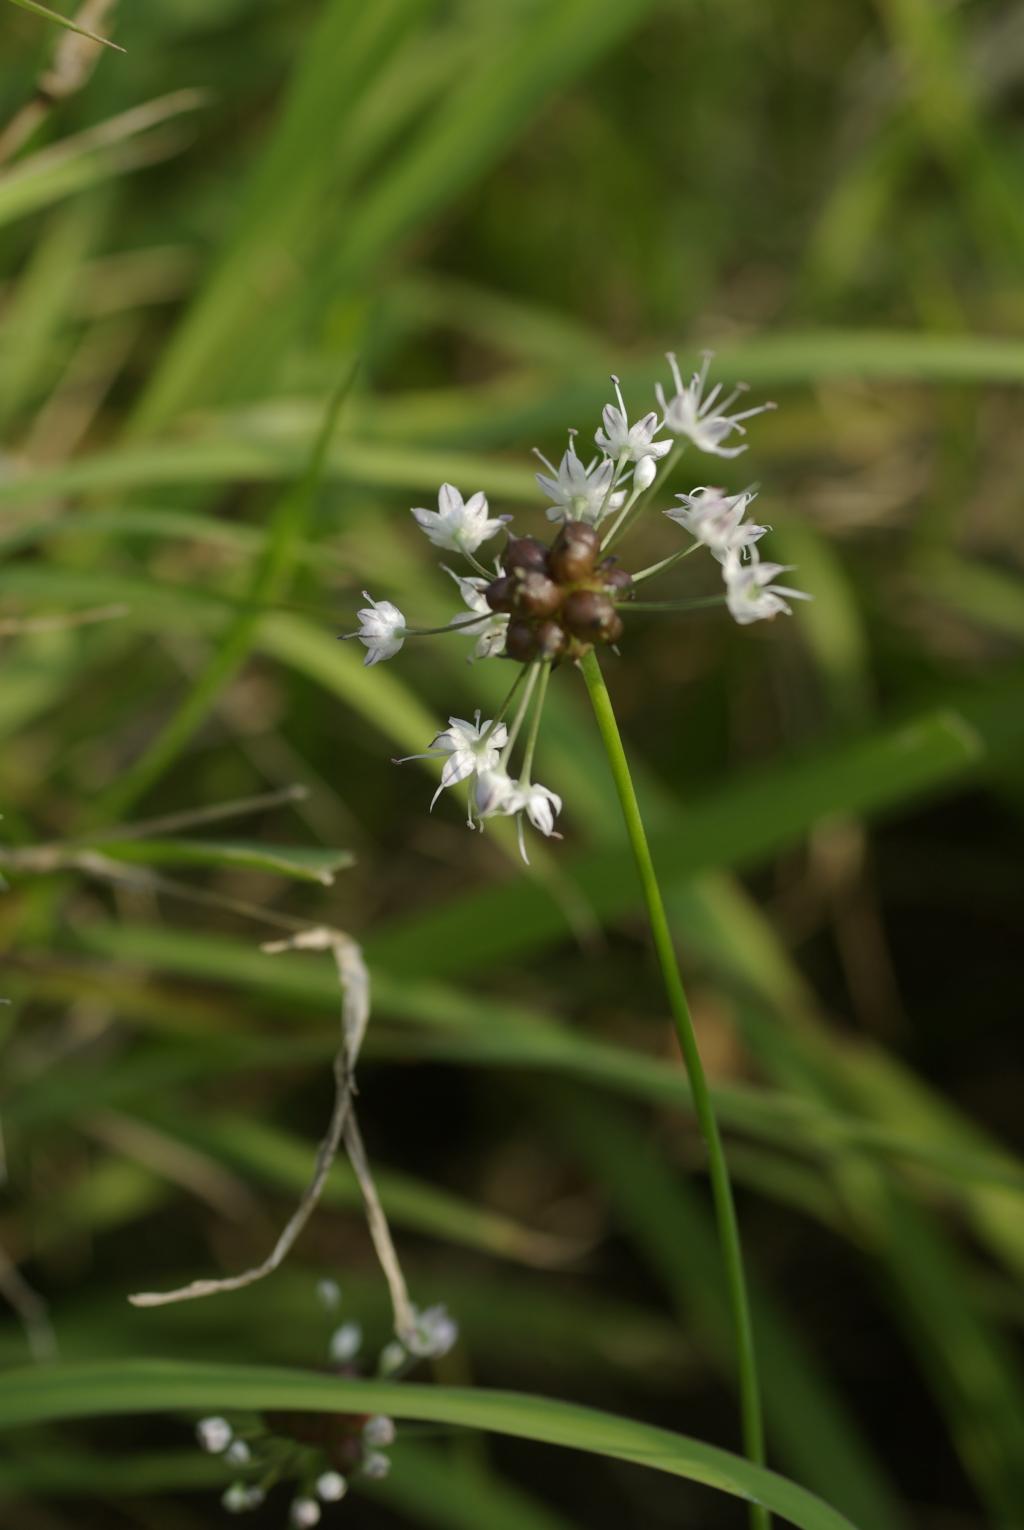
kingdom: Plantae
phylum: Tracheophyta
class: Liliopsida
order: Asparagales
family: Amaryllidaceae
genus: Allium
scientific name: Allium macrostemon
